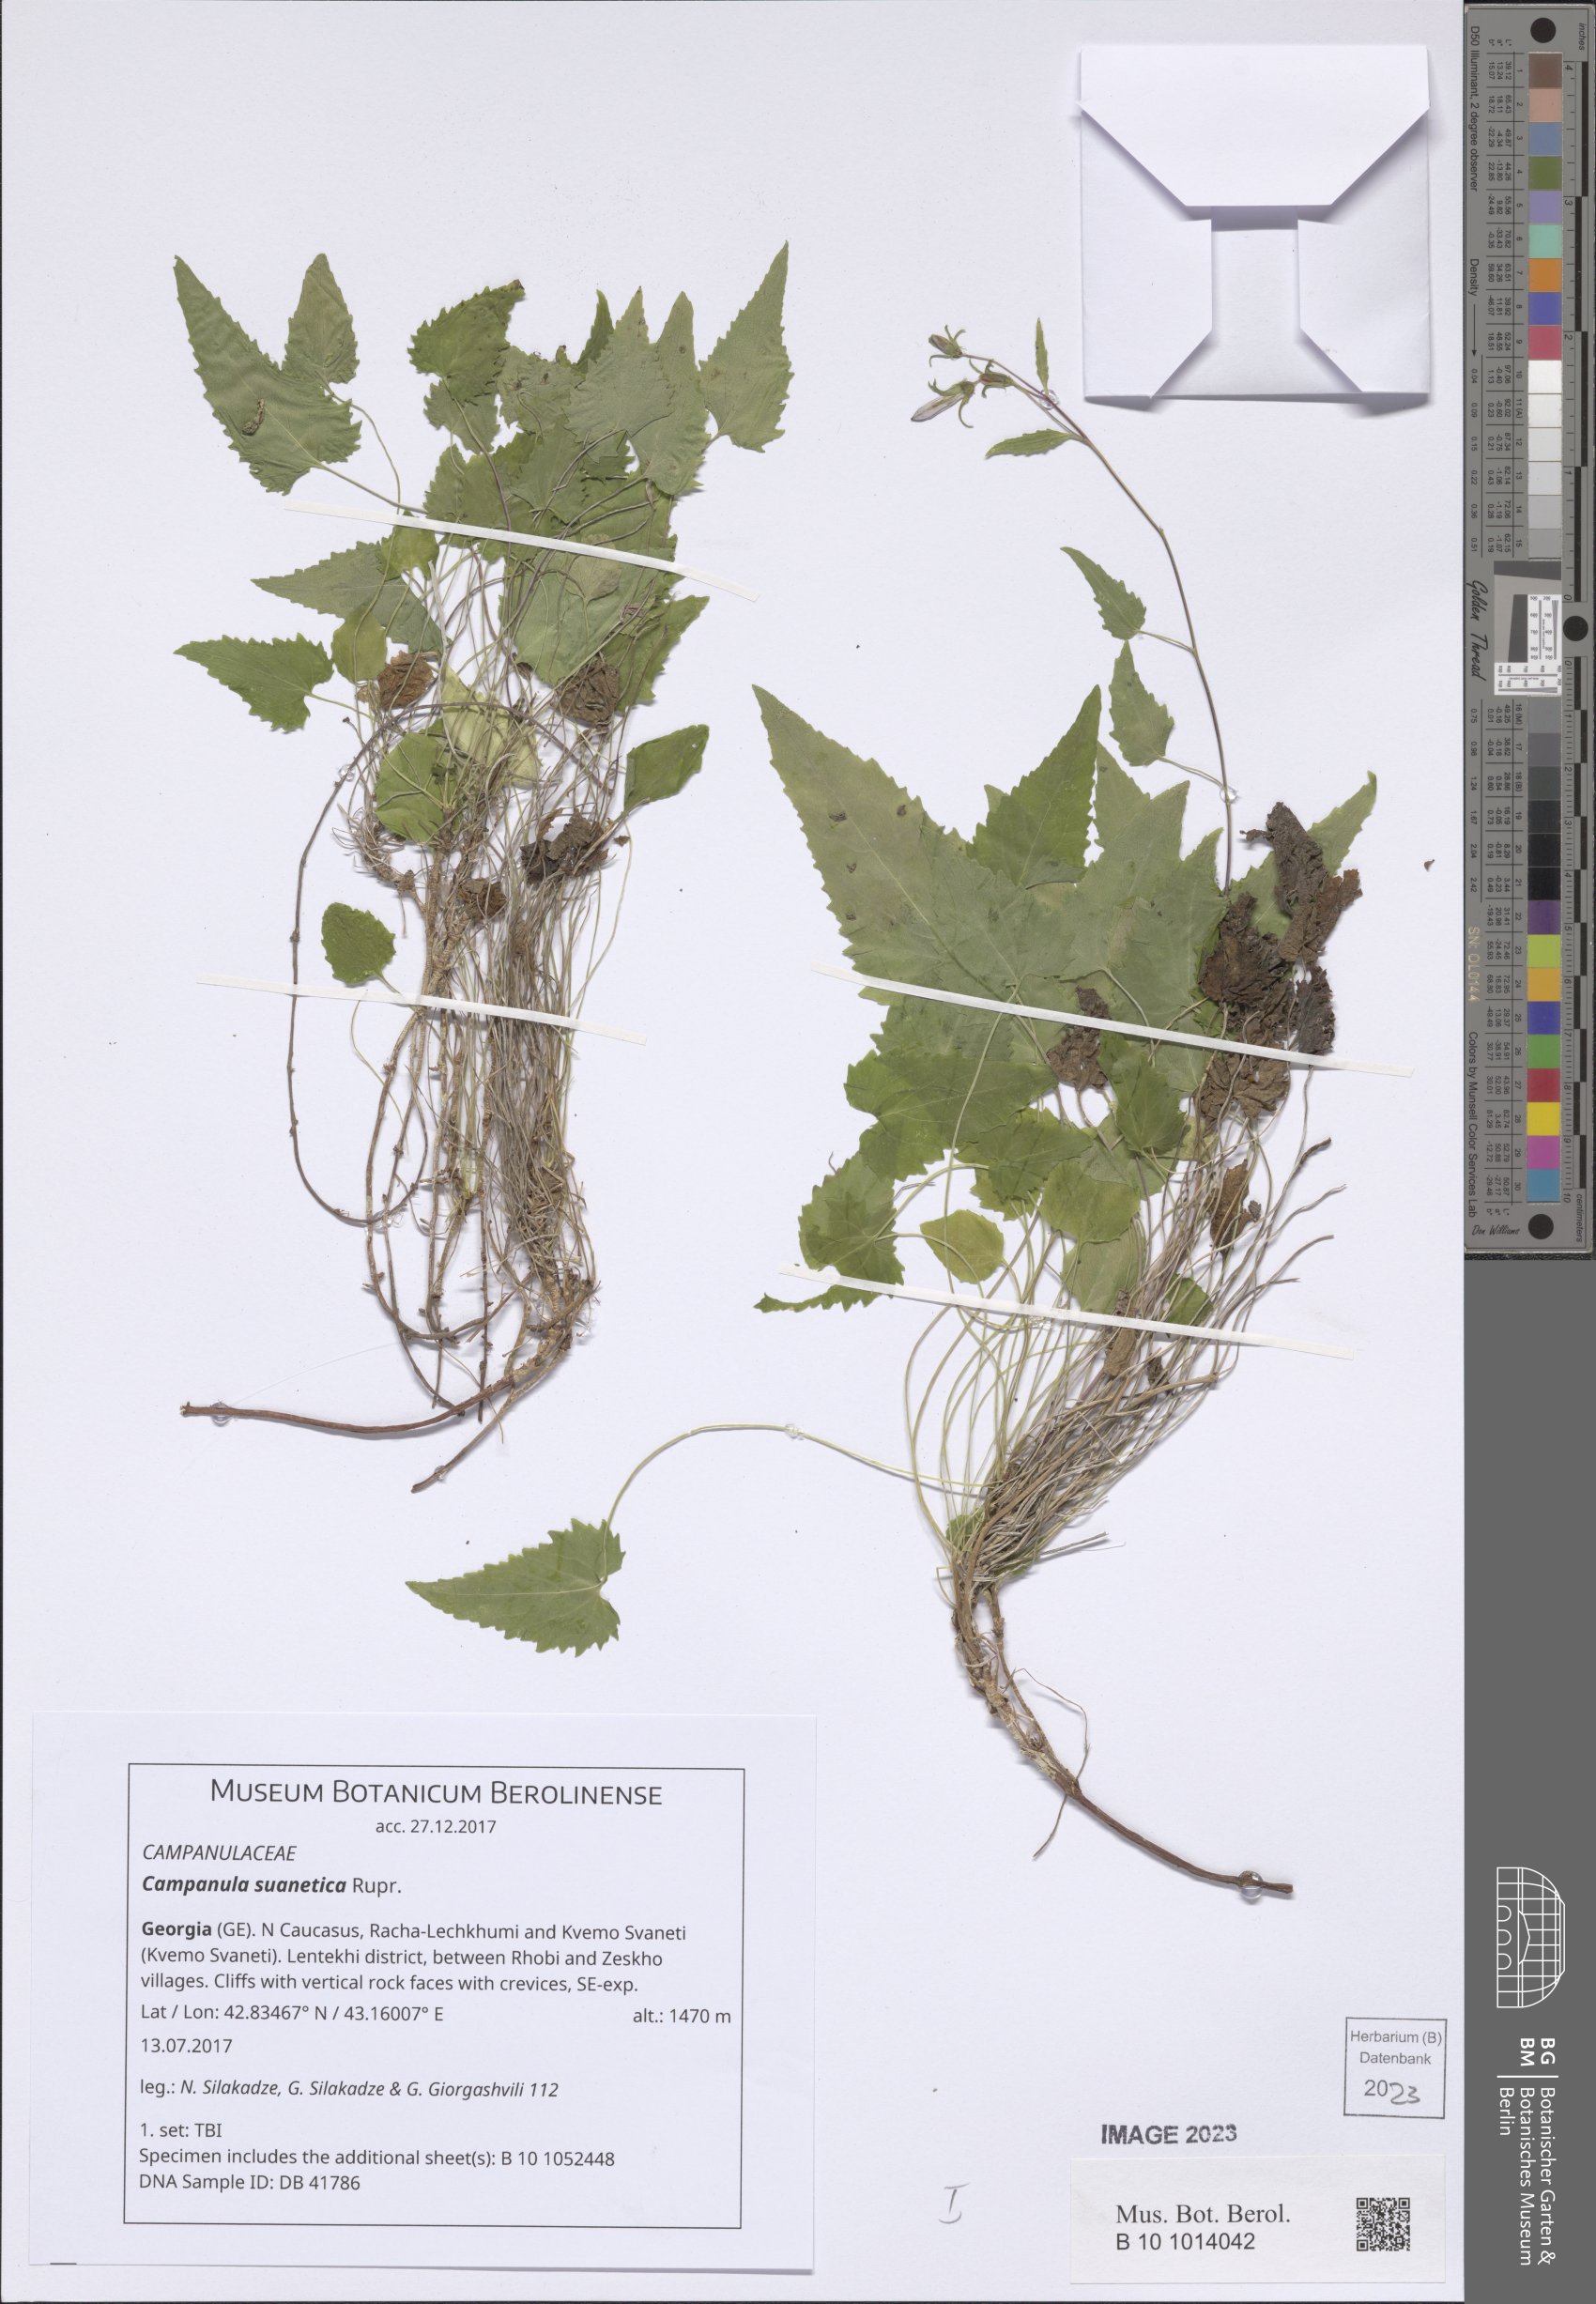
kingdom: Plantae
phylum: Tracheophyta
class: Magnoliopsida
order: Asterales
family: Campanulaceae
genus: Campanula
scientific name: Campanula suanetica
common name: Svanetian bellflower
